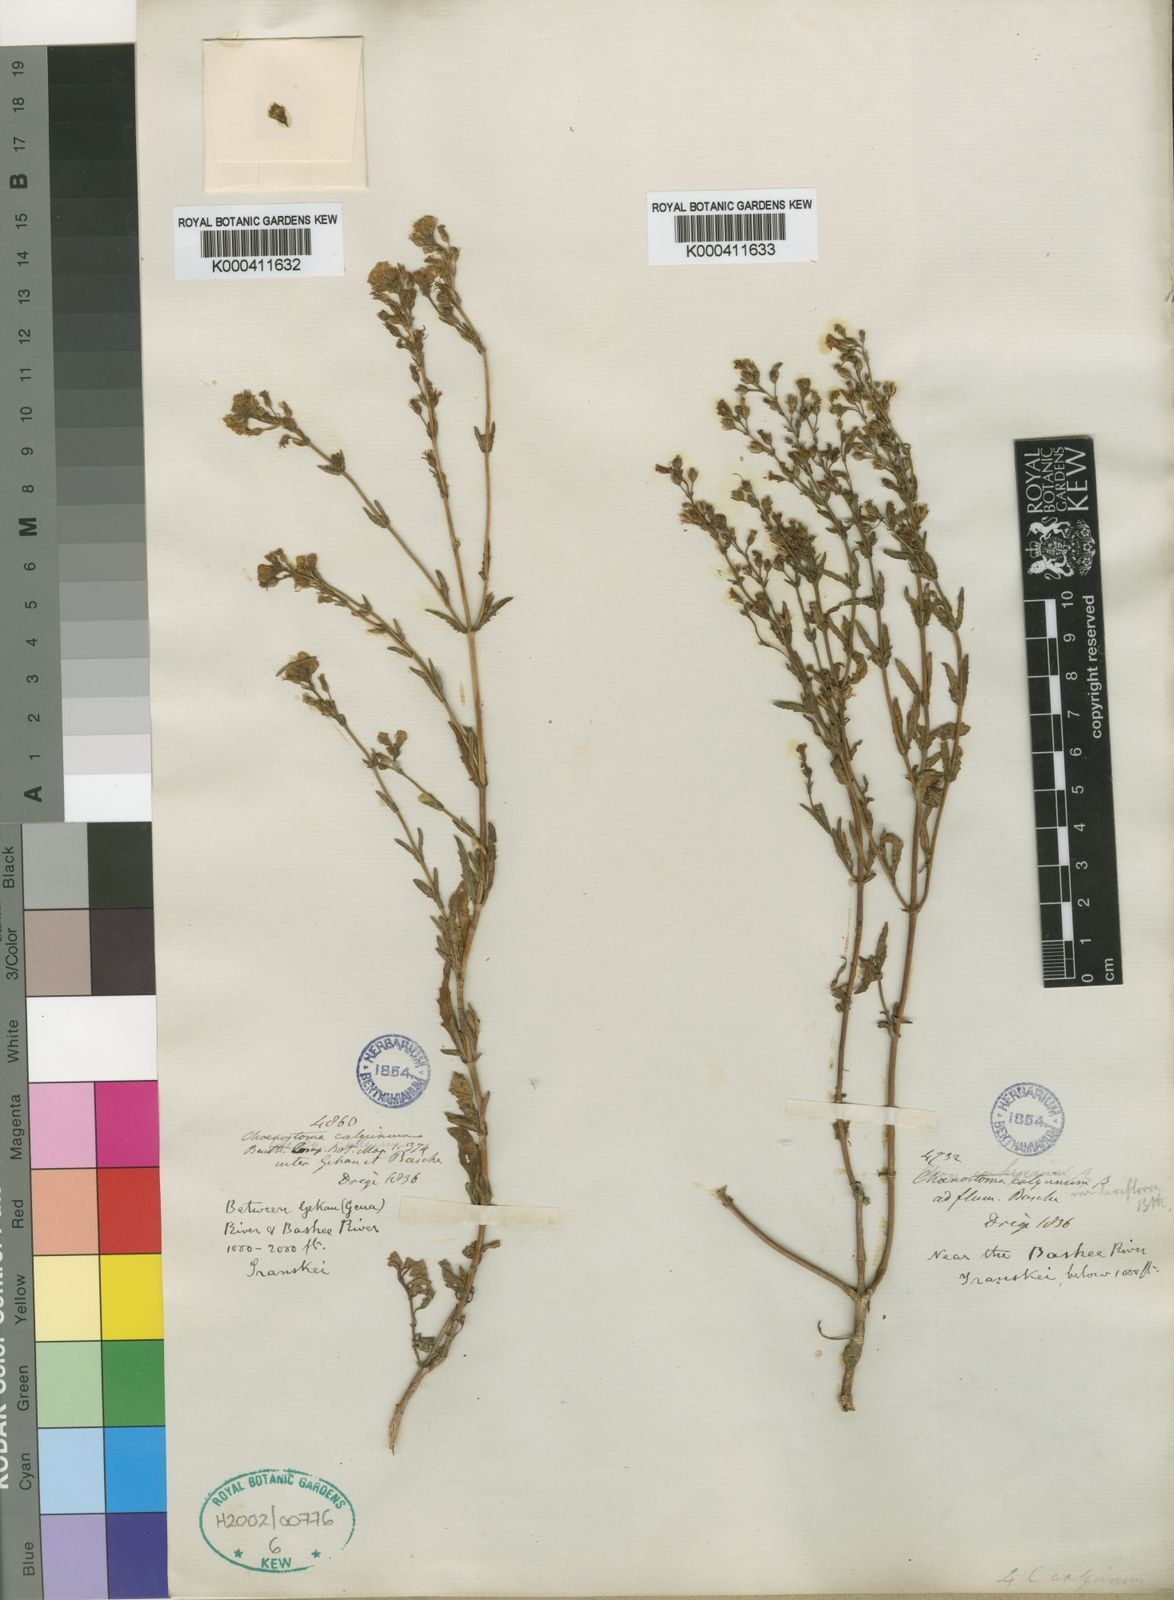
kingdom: Plantae
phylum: Tracheophyta
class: Magnoliopsida
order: Lamiales
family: Scrophulariaceae
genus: Chaenostoma
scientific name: Chaenostoma calycinum
